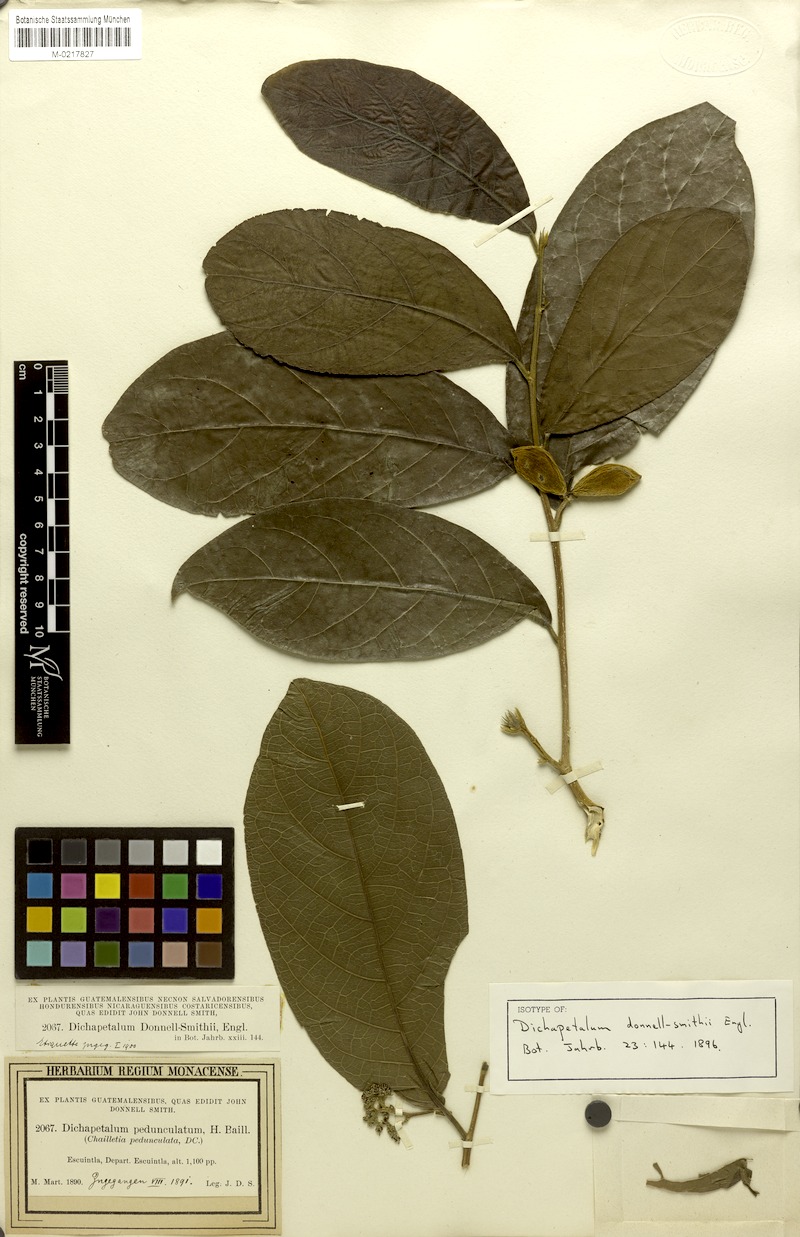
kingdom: Plantae
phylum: Tracheophyta
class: Magnoliopsida
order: Malpighiales
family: Dichapetalaceae
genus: Dichapetalum
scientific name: Dichapetalum donnell-smithii
